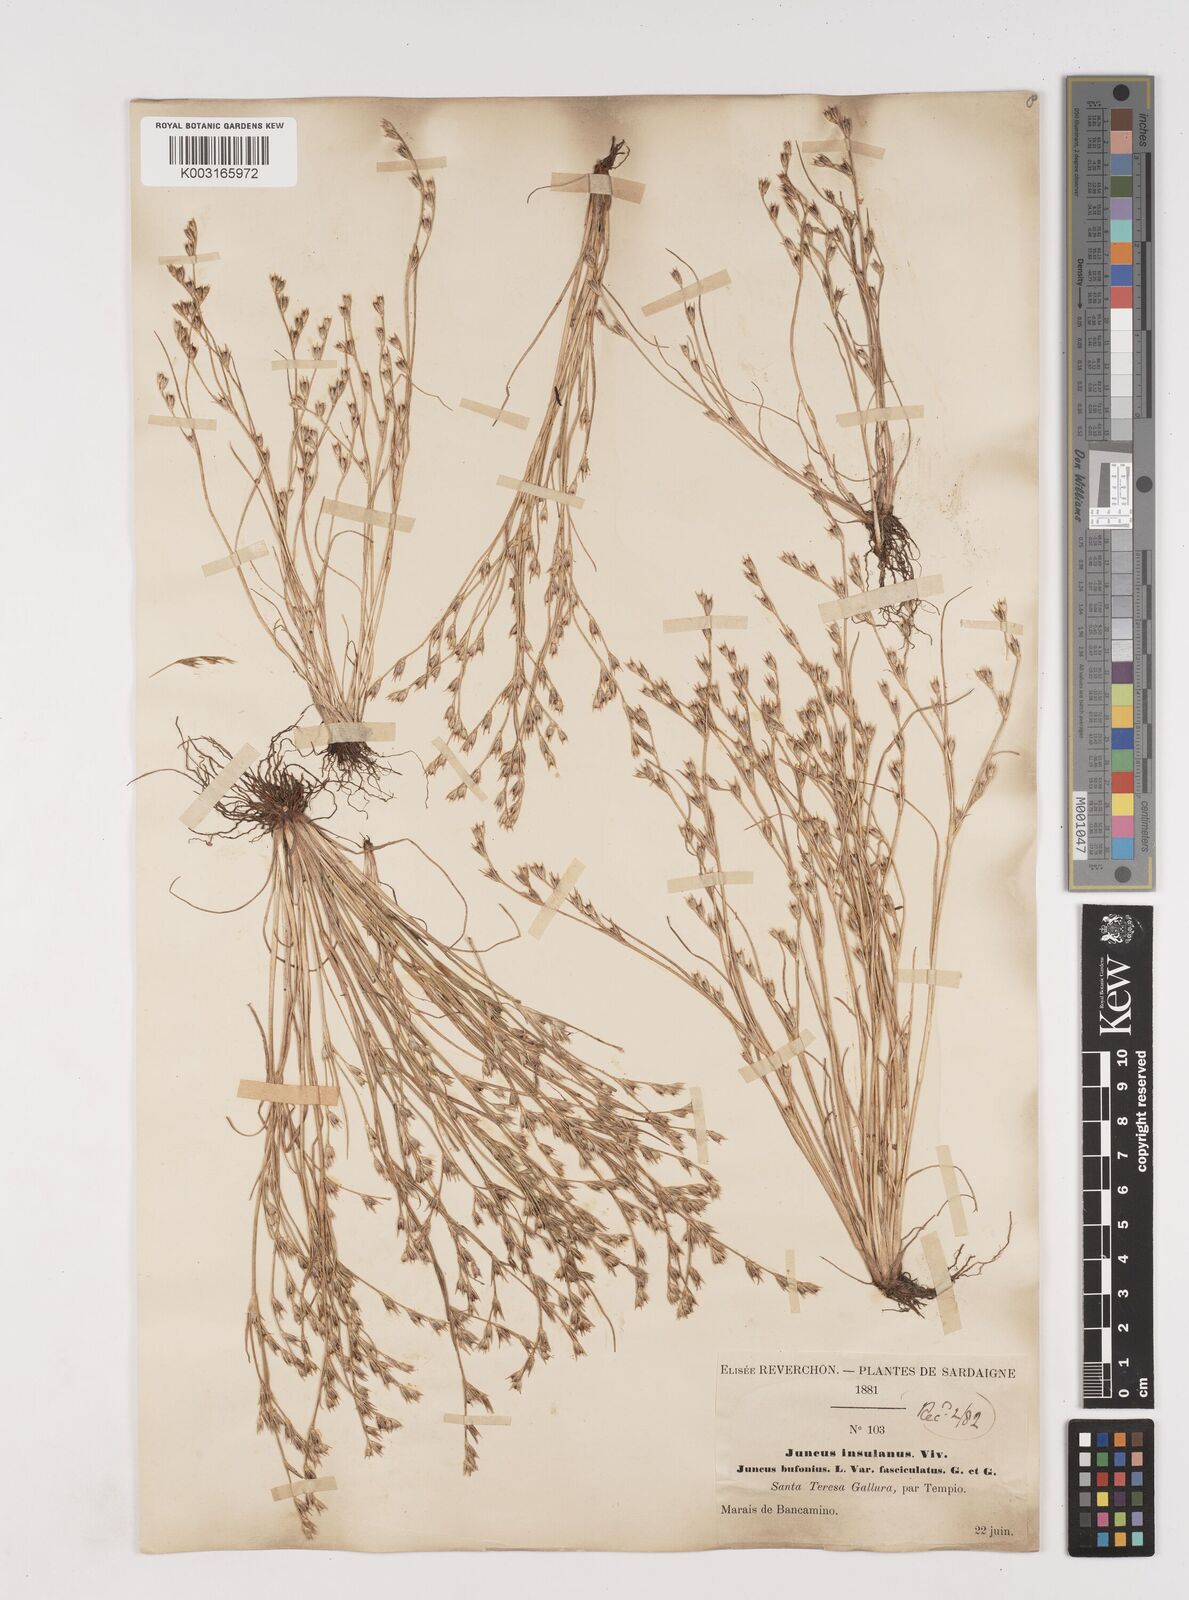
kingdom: Plantae
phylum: Tracheophyta
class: Liliopsida
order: Poales
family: Juncaceae
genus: Juncus
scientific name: Juncus bufonius
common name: Toad rush
